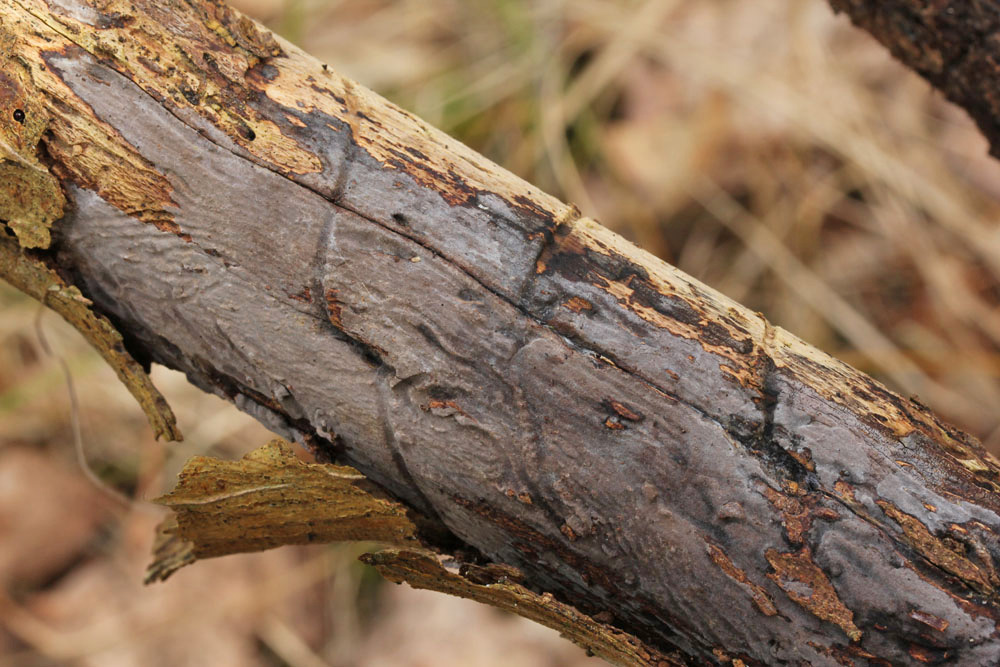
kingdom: Fungi
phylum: Basidiomycota
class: Agaricomycetes
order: Russulales
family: Peniophoraceae
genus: Peniophora
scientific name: Peniophora lycii
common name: grynet voksskind
